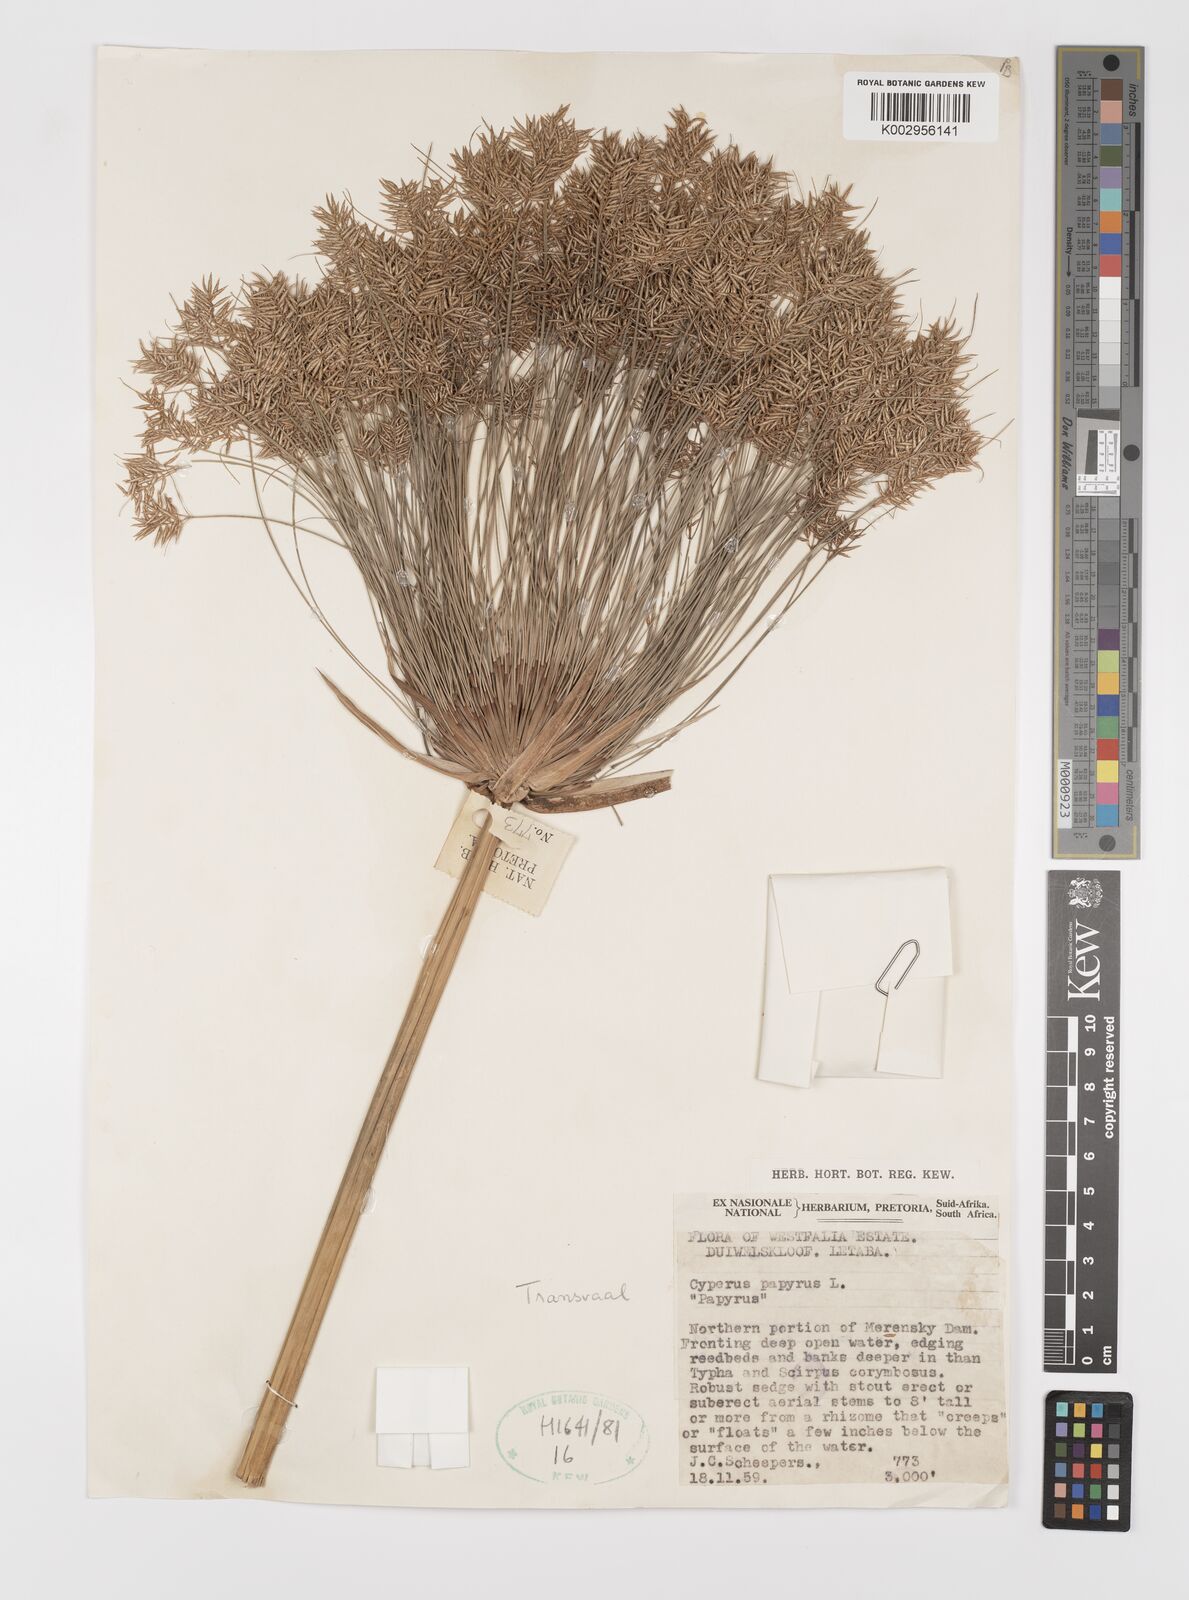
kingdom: Plantae
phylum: Tracheophyta
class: Liliopsida
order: Poales
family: Cyperaceae
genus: Cyperus
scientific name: Cyperus papyrus
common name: Papyrus
